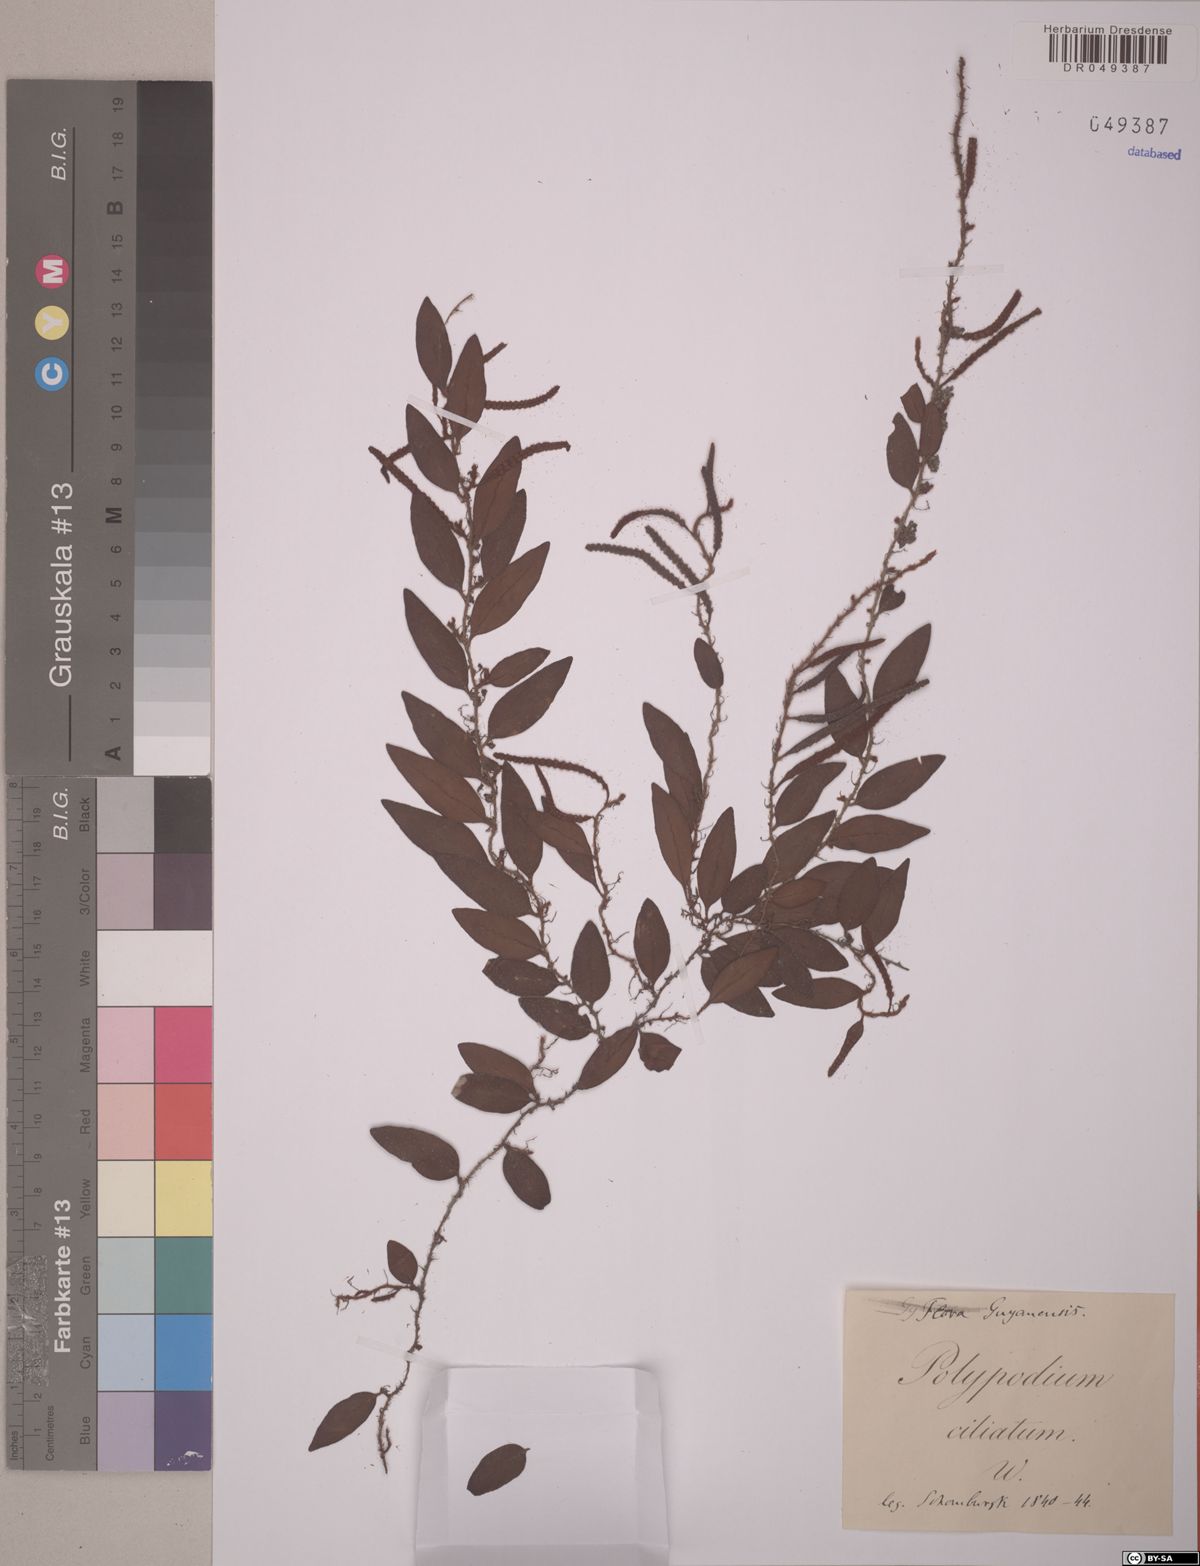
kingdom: Plantae
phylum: Tracheophyta
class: Polypodiopsida
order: Polypodiales
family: Polypodiaceae
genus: Microgramma
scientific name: Microgramma reptans
